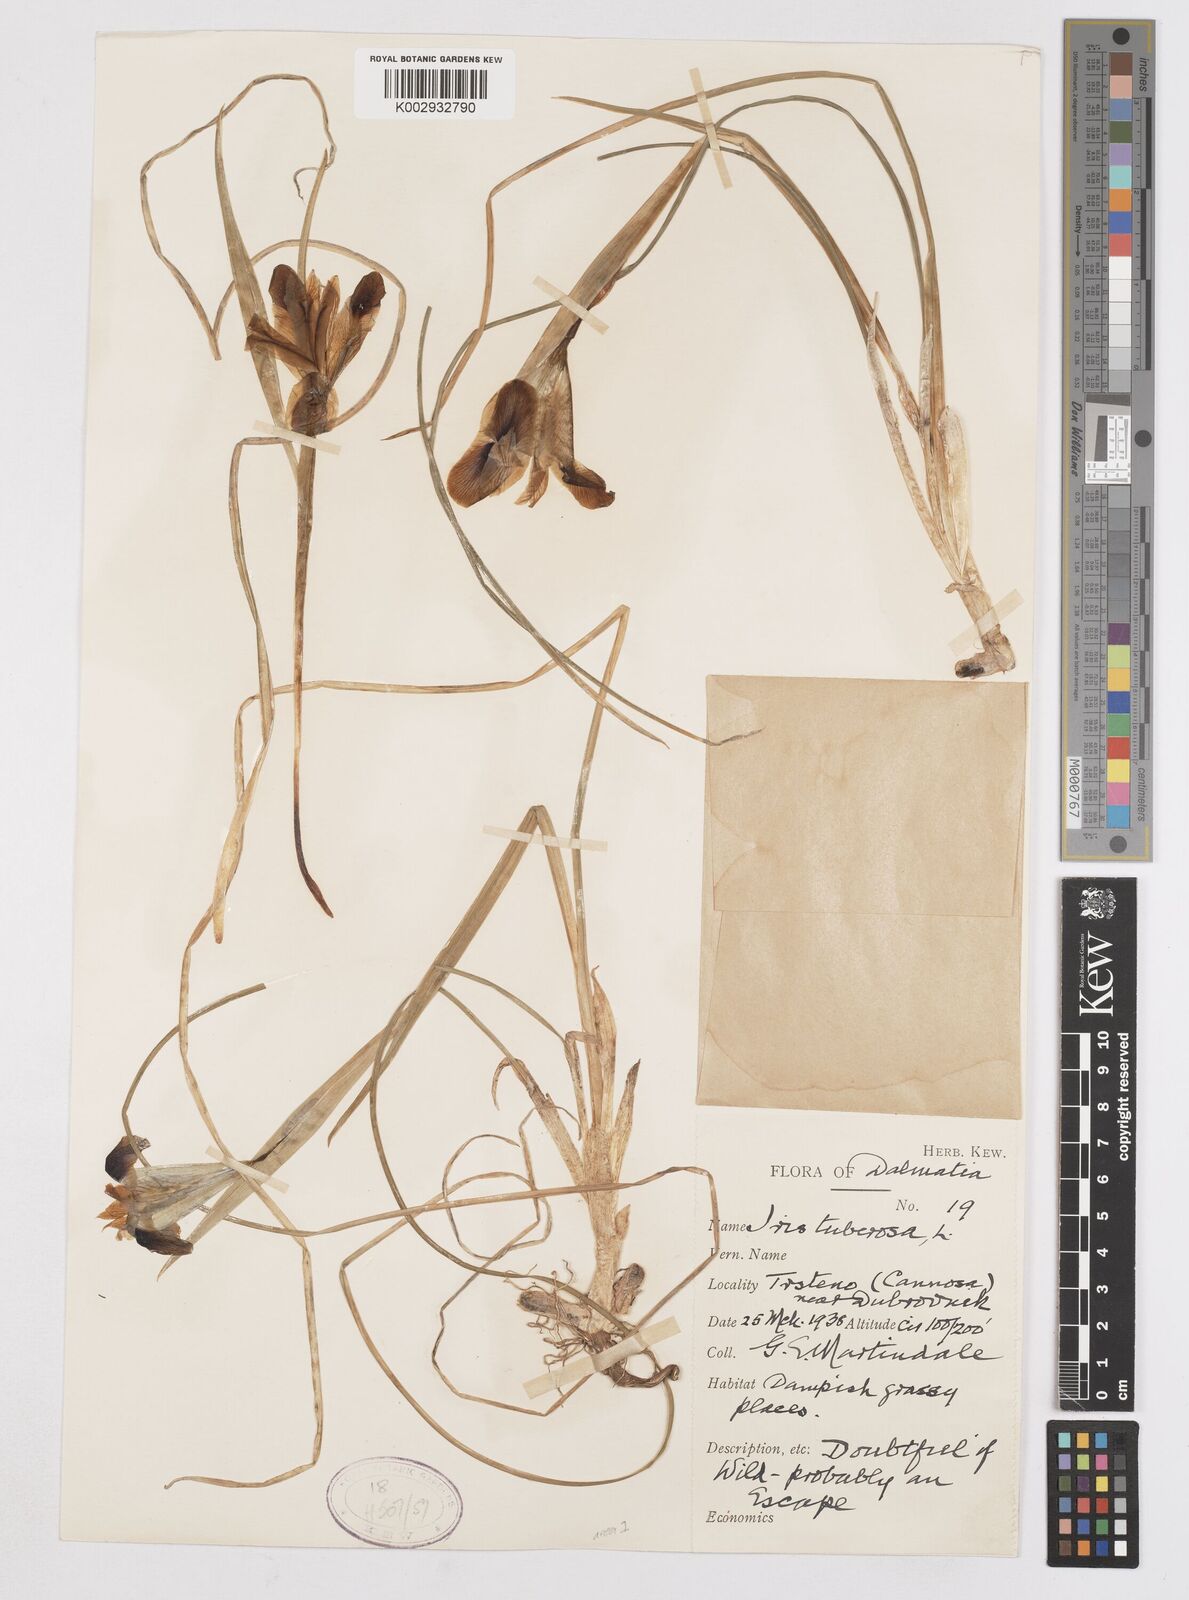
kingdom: Plantae
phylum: Tracheophyta
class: Liliopsida
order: Asparagales
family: Iridaceae
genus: Iris
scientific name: Iris tuberosa
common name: Snake's-head iris
